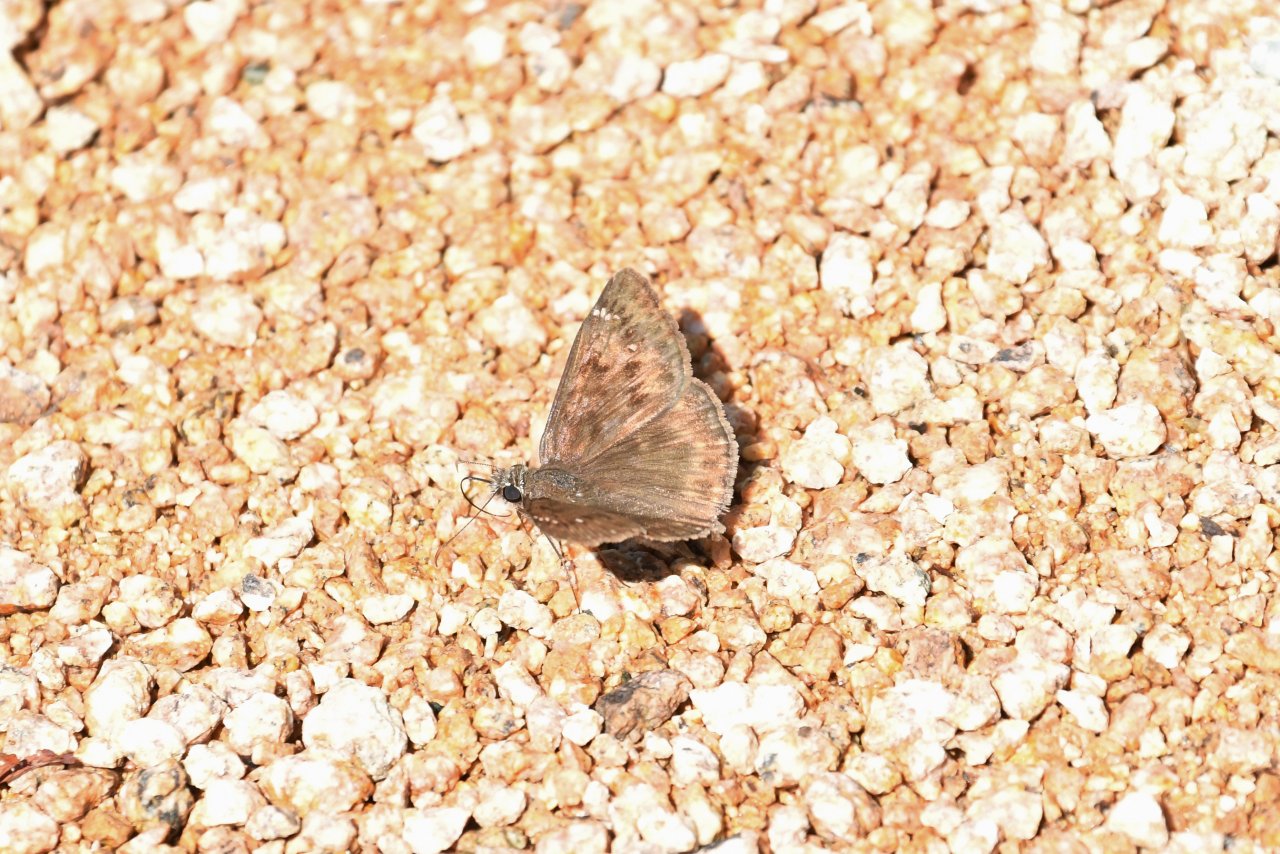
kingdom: Animalia
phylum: Arthropoda
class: Insecta
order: Lepidoptera
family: Hesperiidae
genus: Gesta
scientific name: Gesta
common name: Horace's Duskywing
